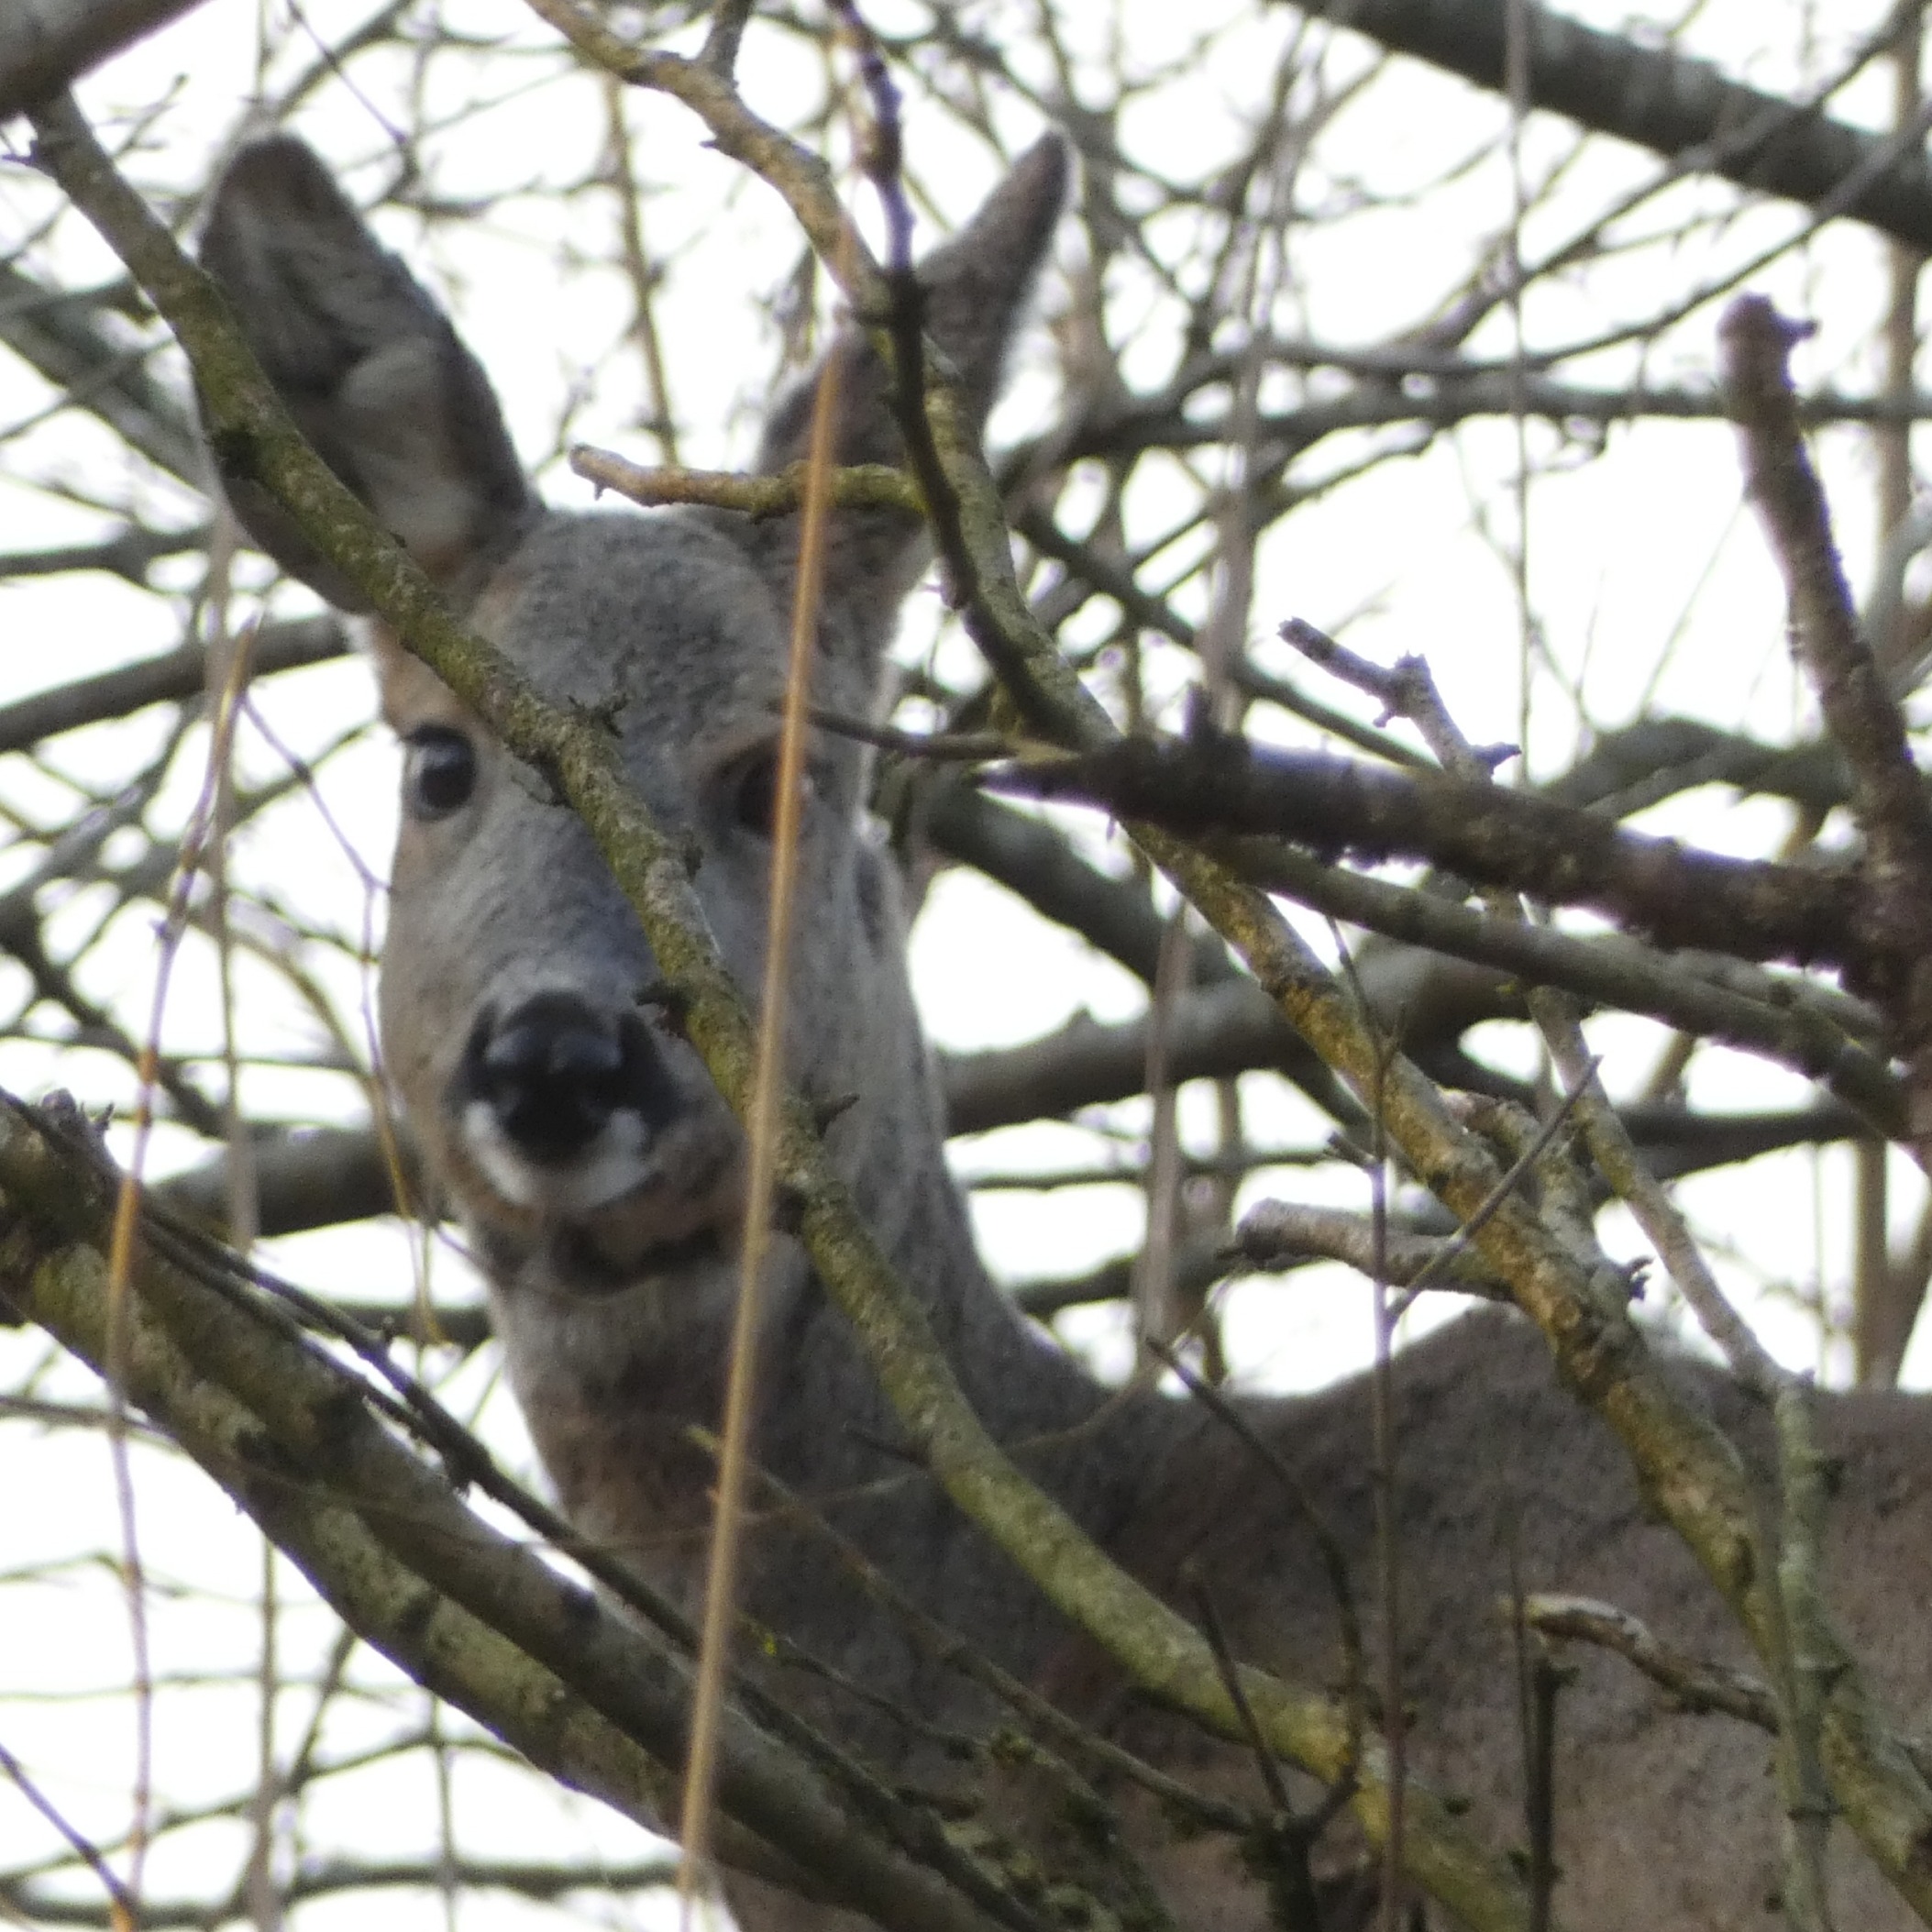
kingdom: Animalia
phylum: Chordata
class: Mammalia
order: Artiodactyla
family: Cervidae
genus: Capreolus
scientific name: Capreolus capreolus
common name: Rådyr
